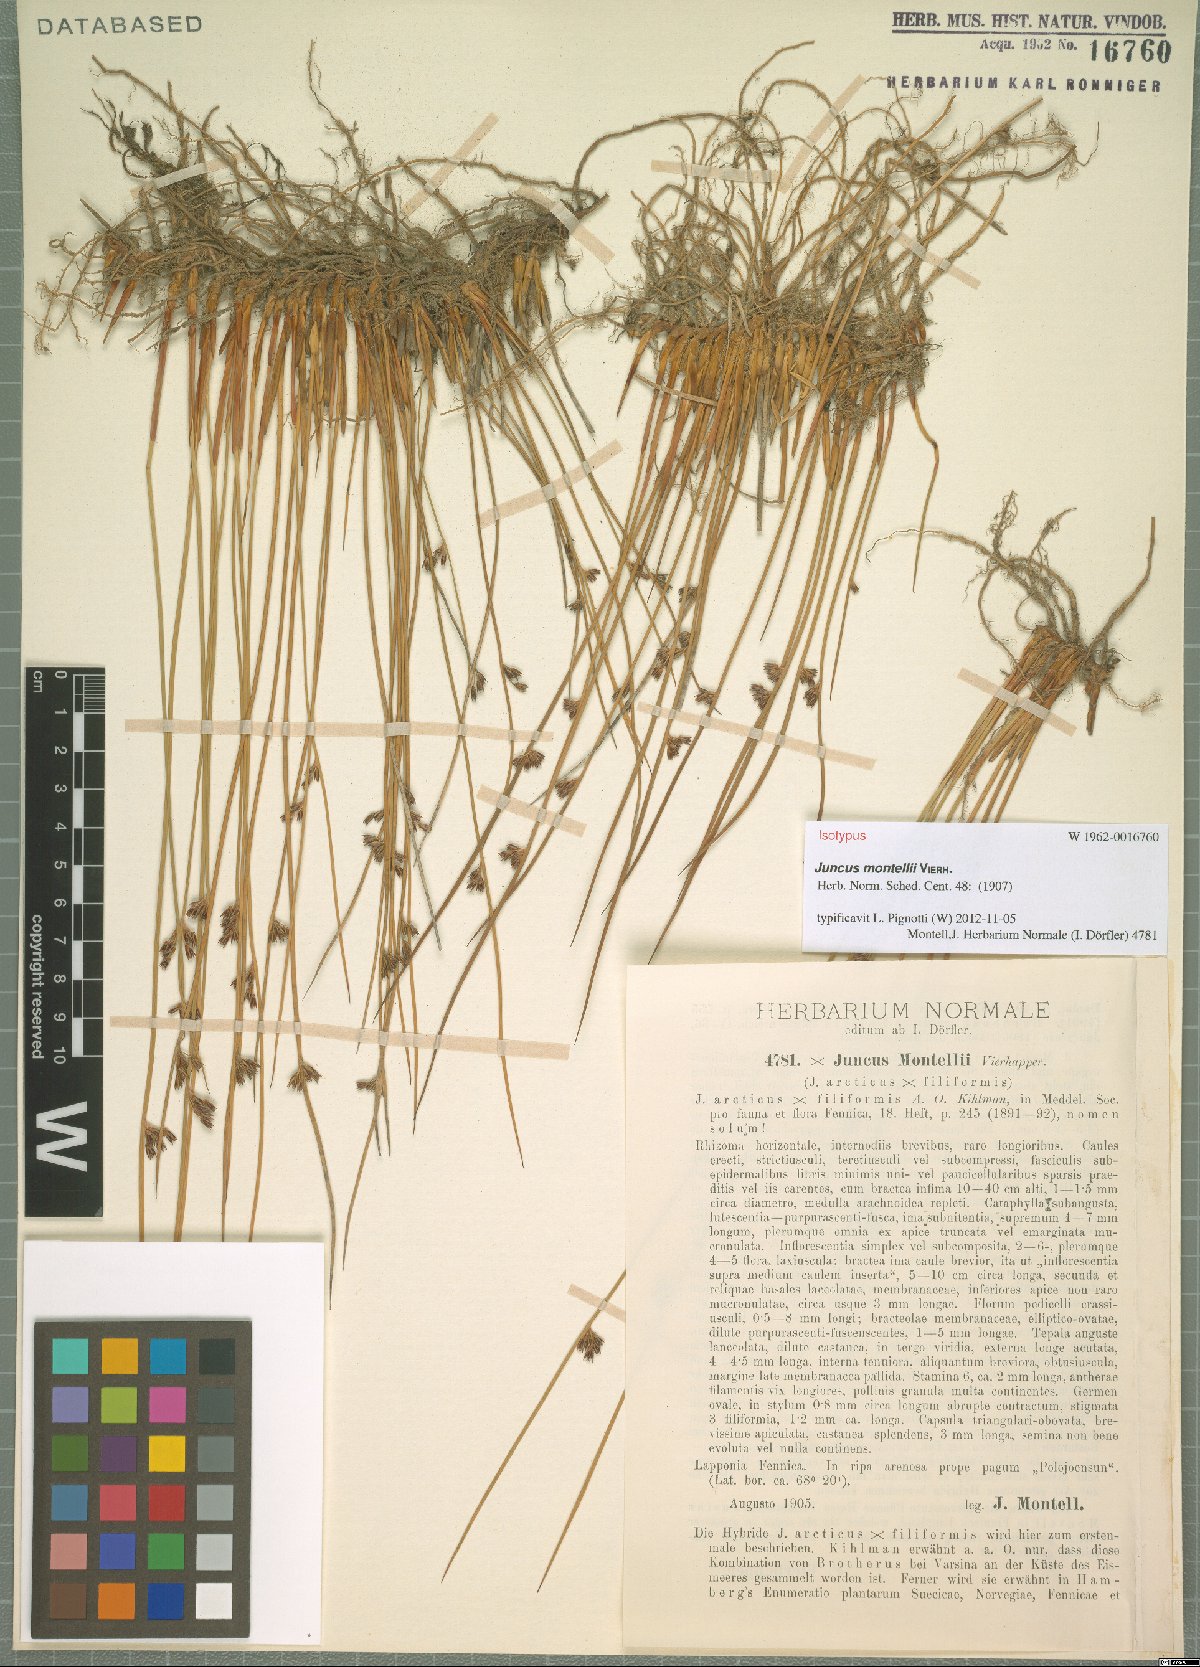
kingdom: Plantae
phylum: Tracheophyta
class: Liliopsida
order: Poales
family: Juncaceae
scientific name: Juncaceae
